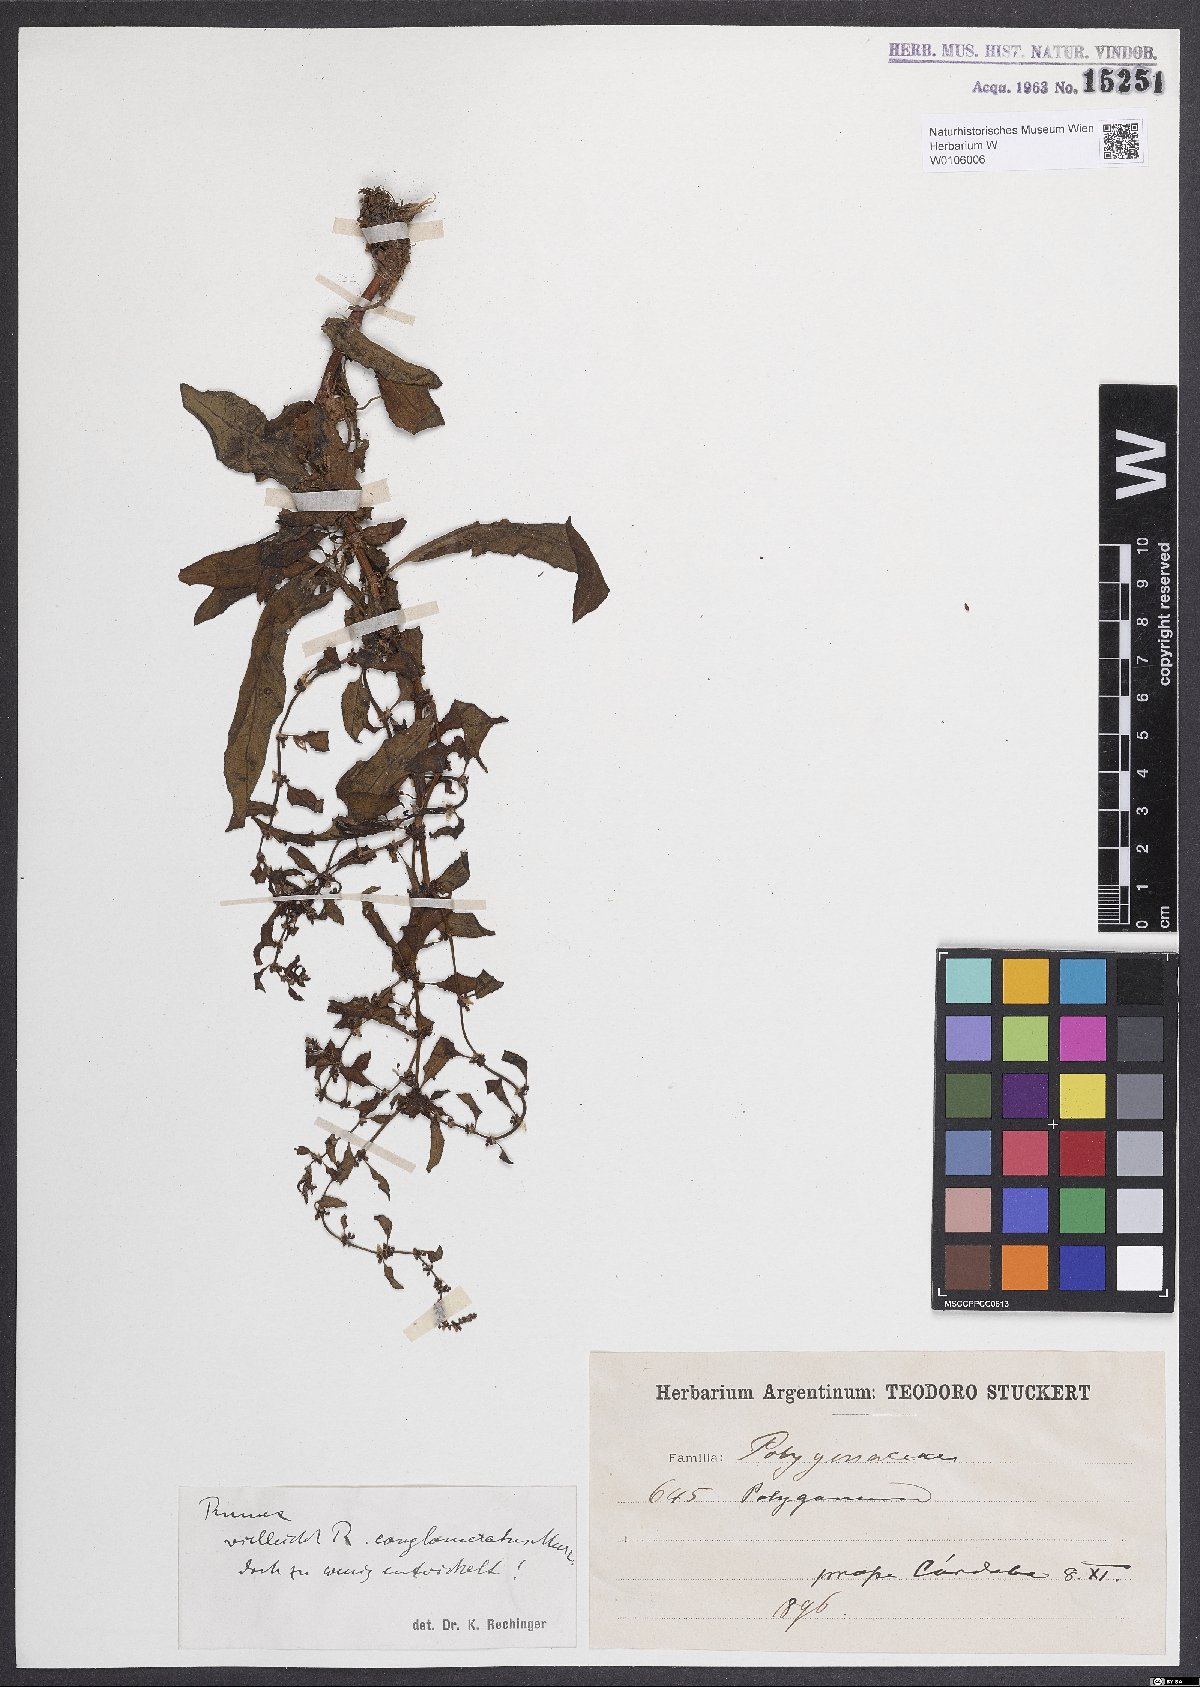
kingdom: Plantae
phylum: Tracheophyta
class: Magnoliopsida
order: Caryophyllales
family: Polygonaceae
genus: Rumex
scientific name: Rumex conglomeratus
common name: Clustered dock
